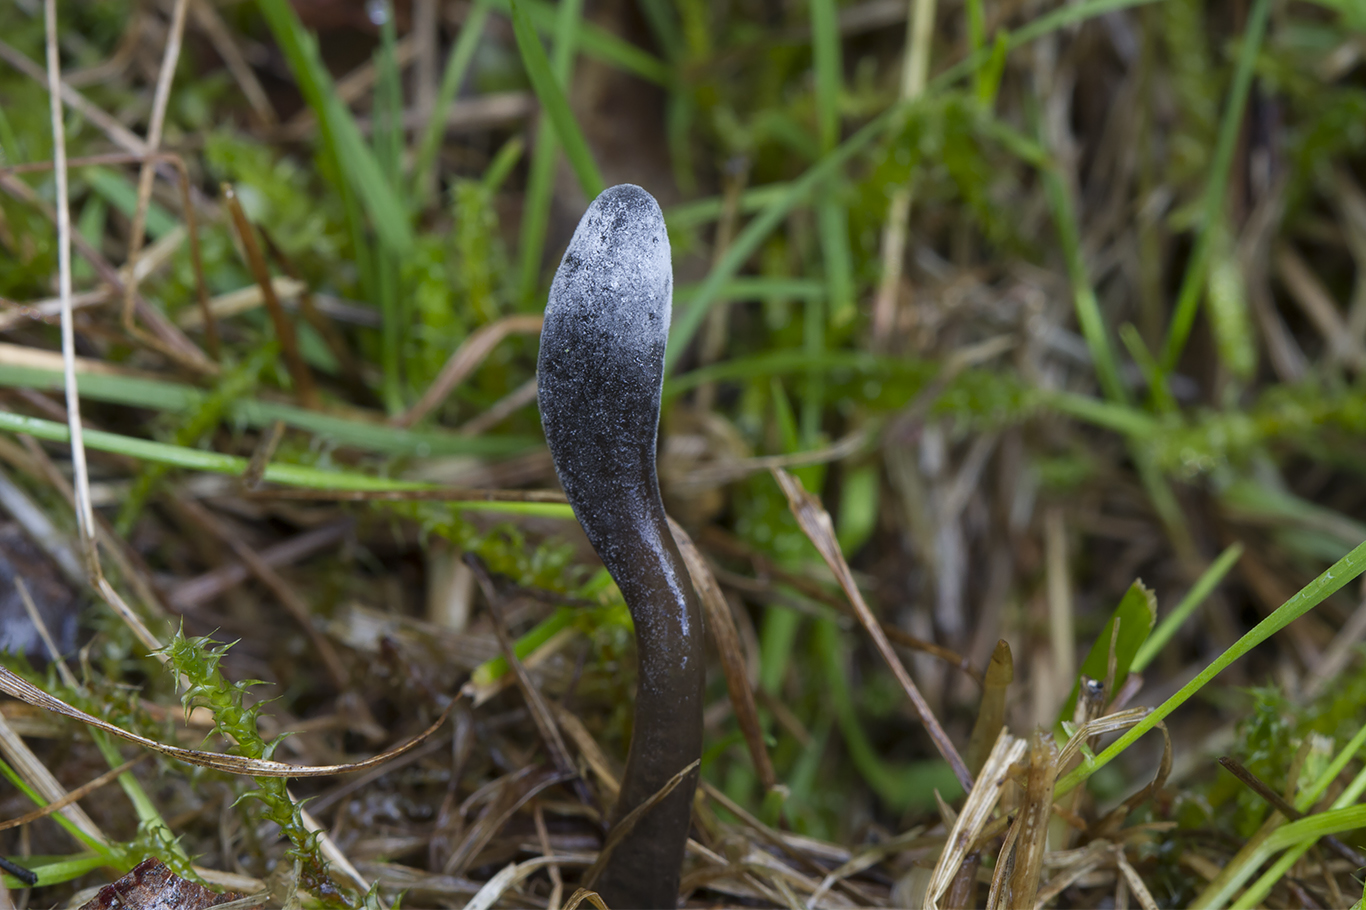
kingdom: Fungi
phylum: Ascomycota
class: Sordariomycetes
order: Hypocreales
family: Hypocreaceae
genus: Hypomyces
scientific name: Hypomyces papulasporae
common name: jordtunge-snylteskorpe
